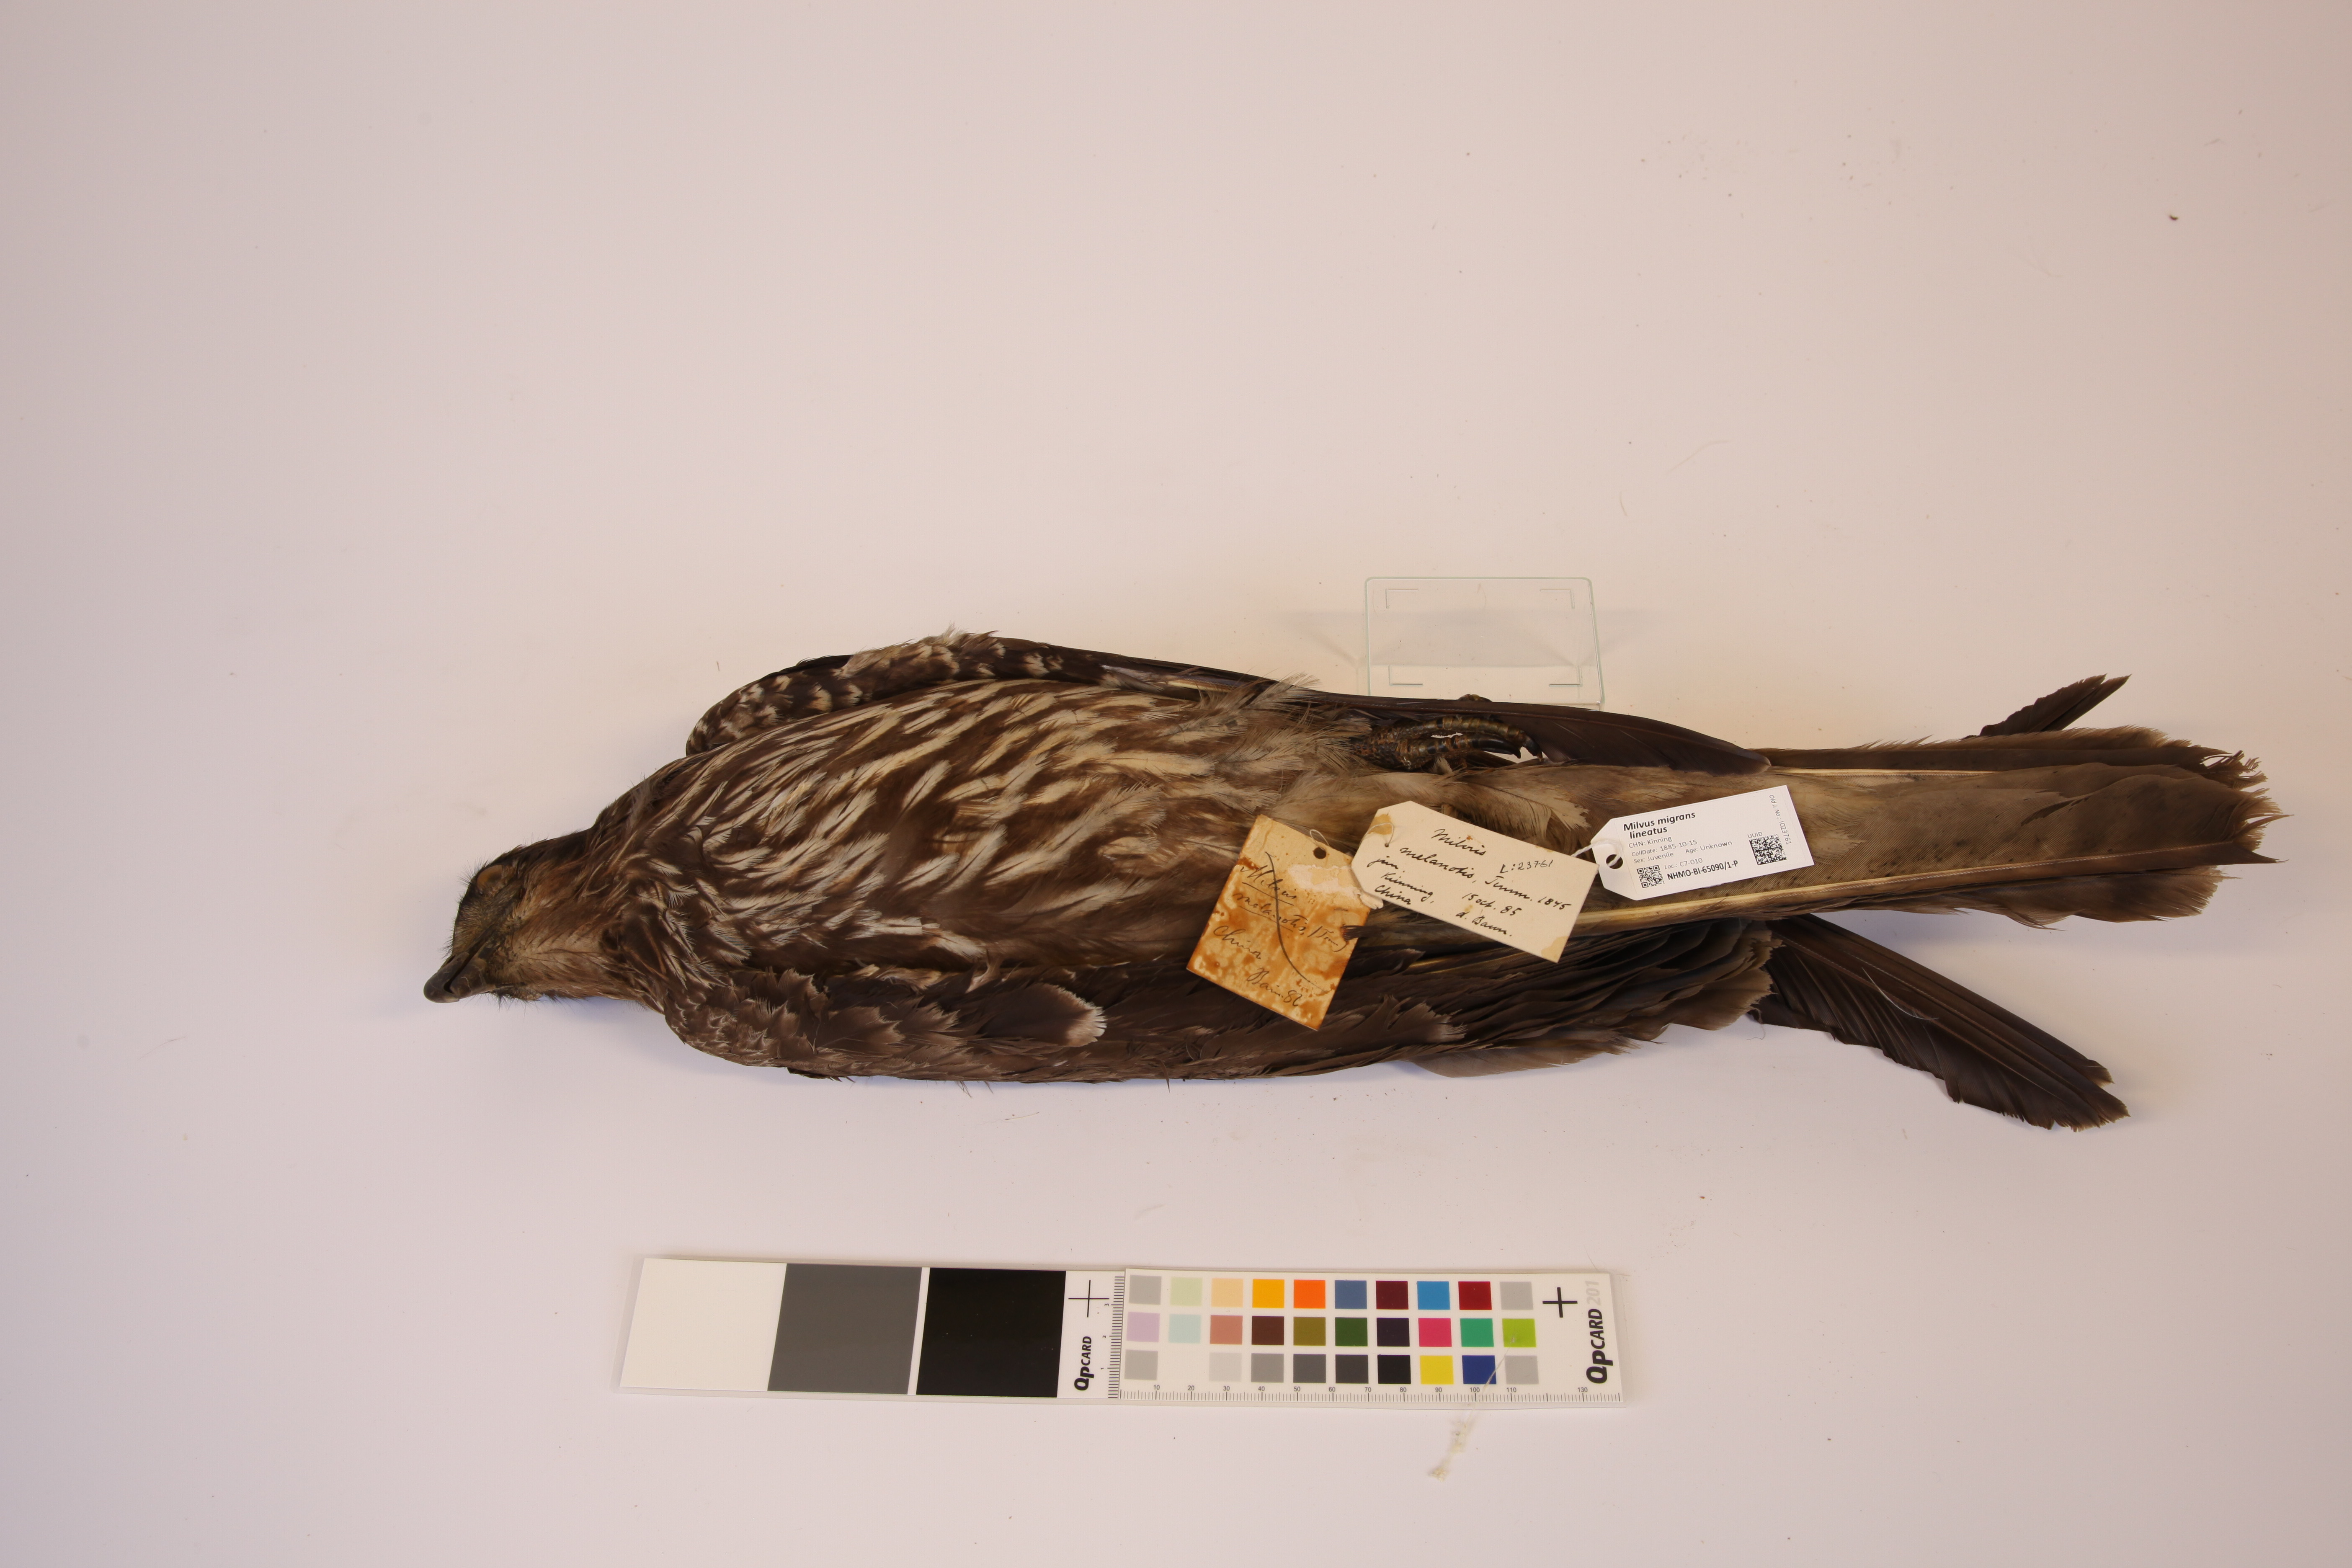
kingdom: Animalia
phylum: Chordata
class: Aves
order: Accipitriformes
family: Accipitridae
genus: Milvus
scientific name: Milvus migrans
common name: Black kite
